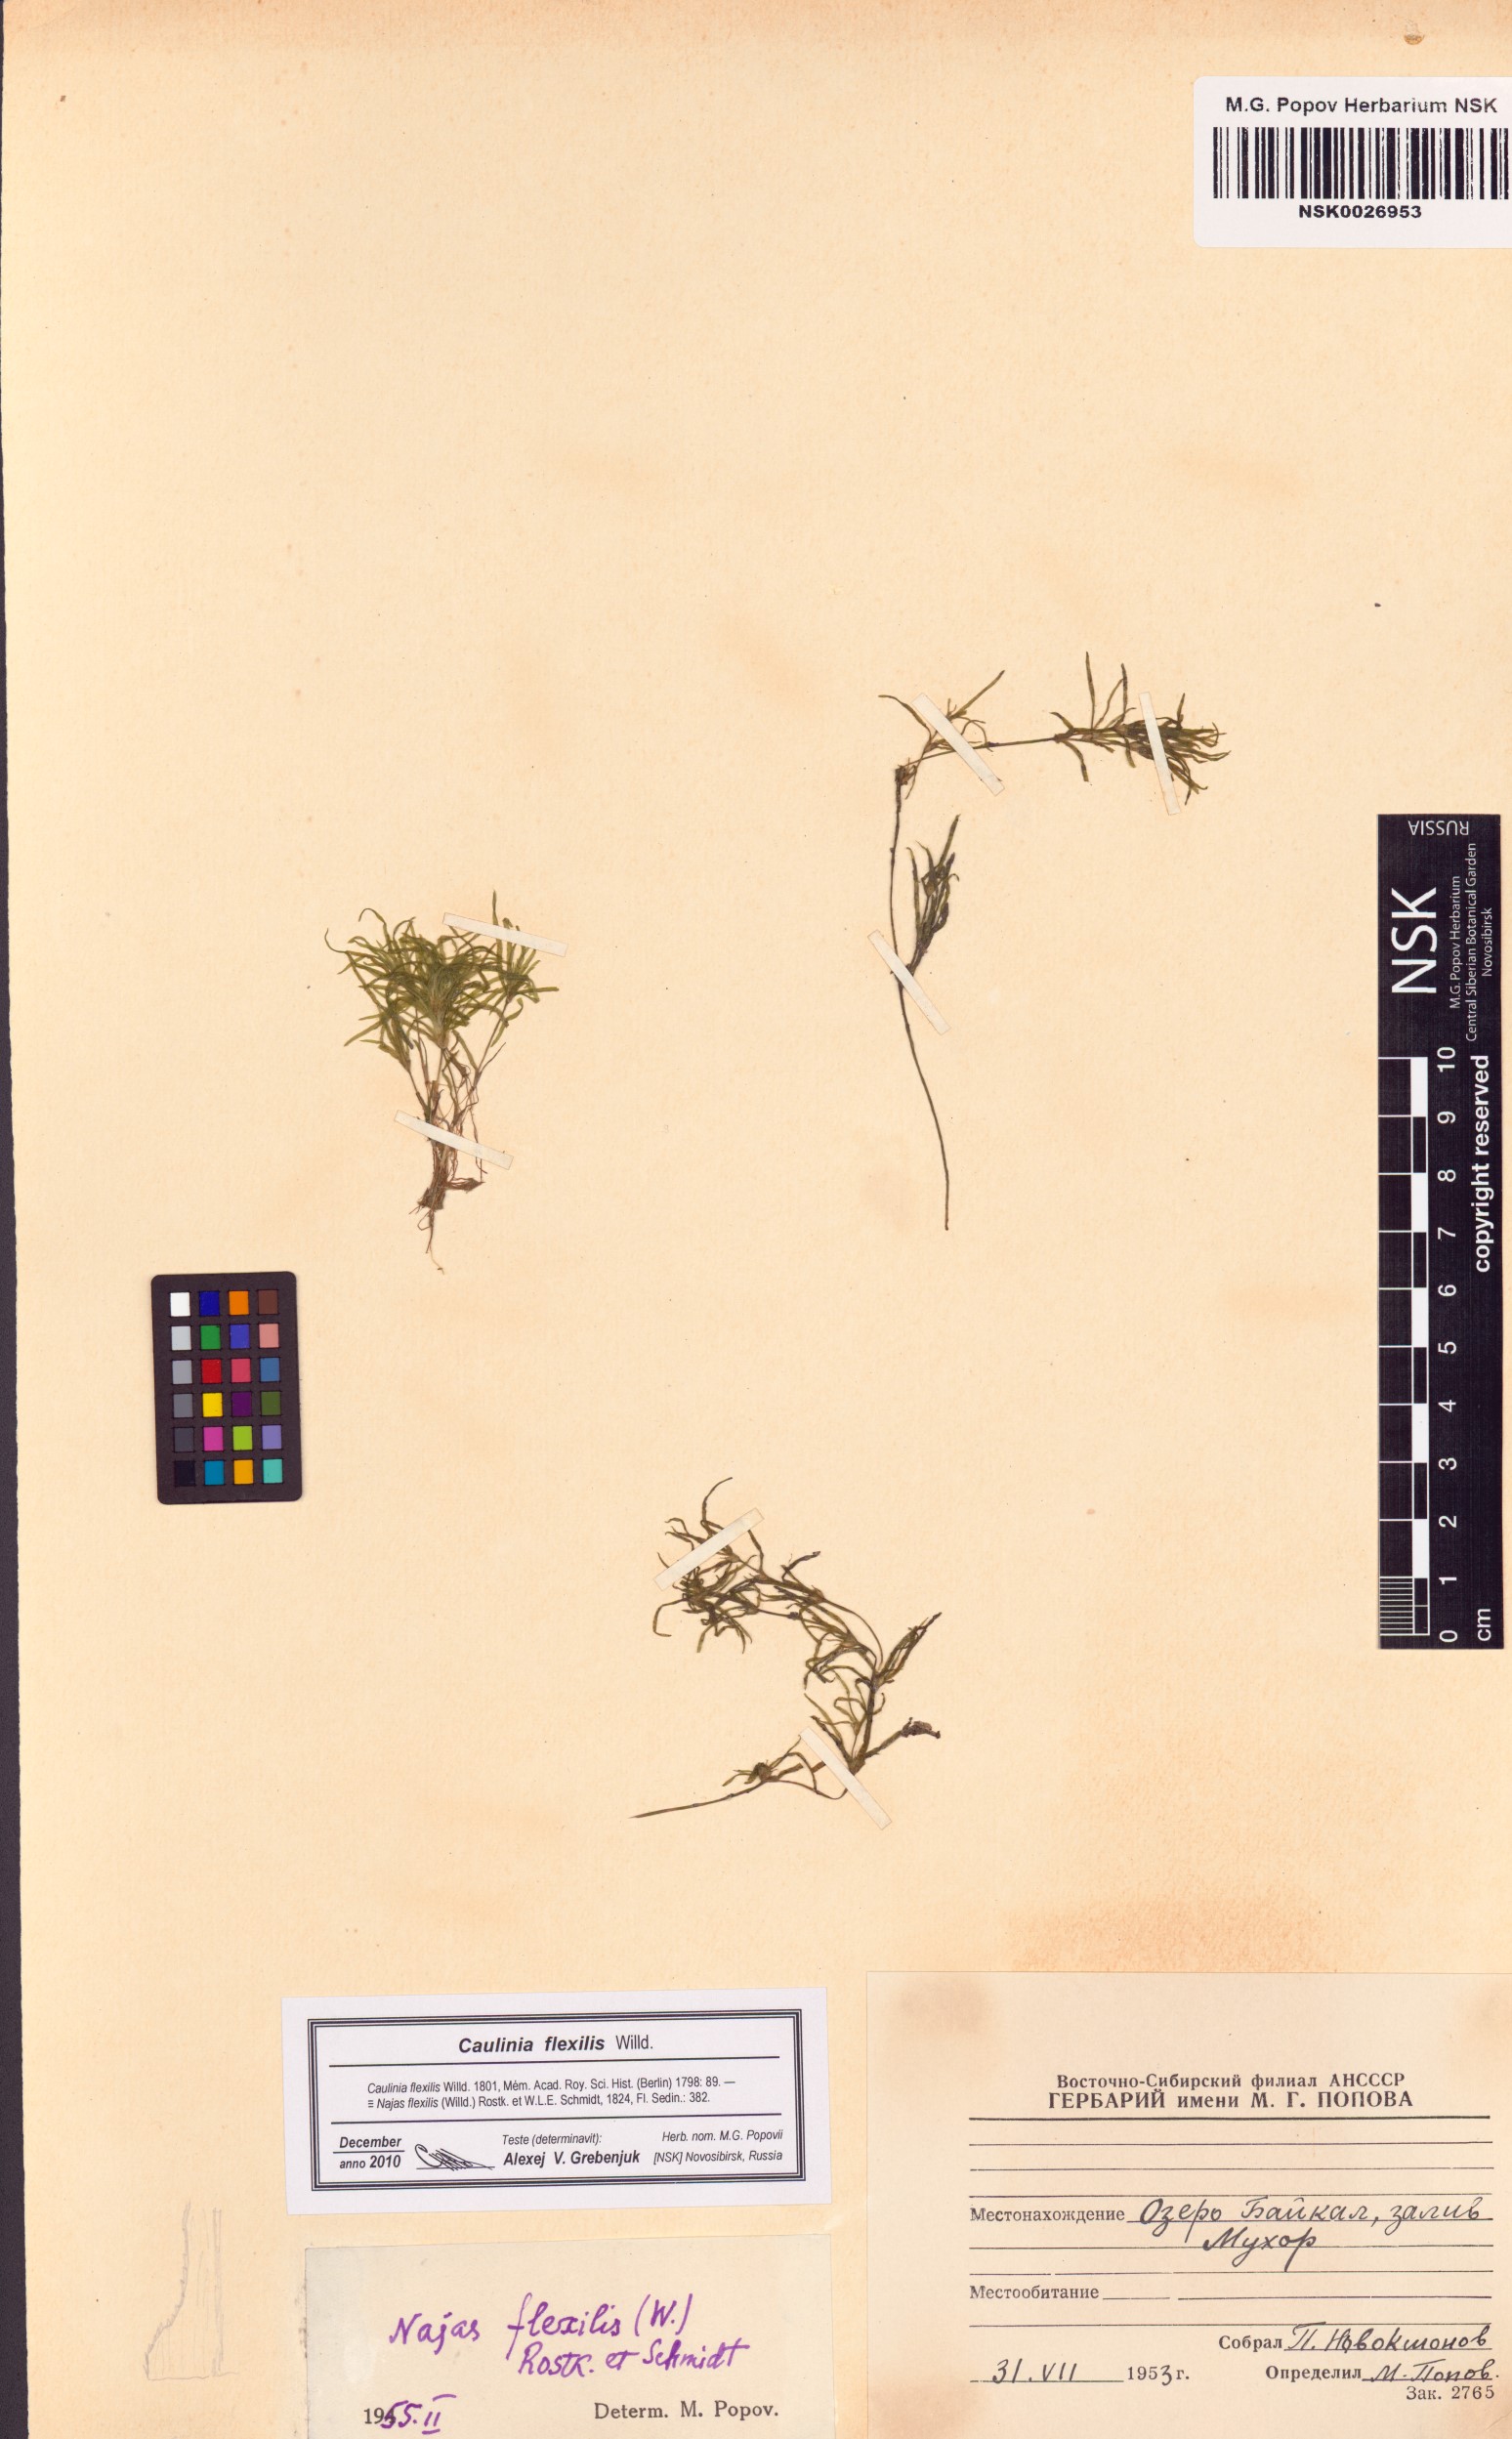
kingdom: Plantae
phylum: Tracheophyta
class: Liliopsida
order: Alismatales
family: Hydrocharitaceae
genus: Najas
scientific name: Najas flexilis
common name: Slender naiad
